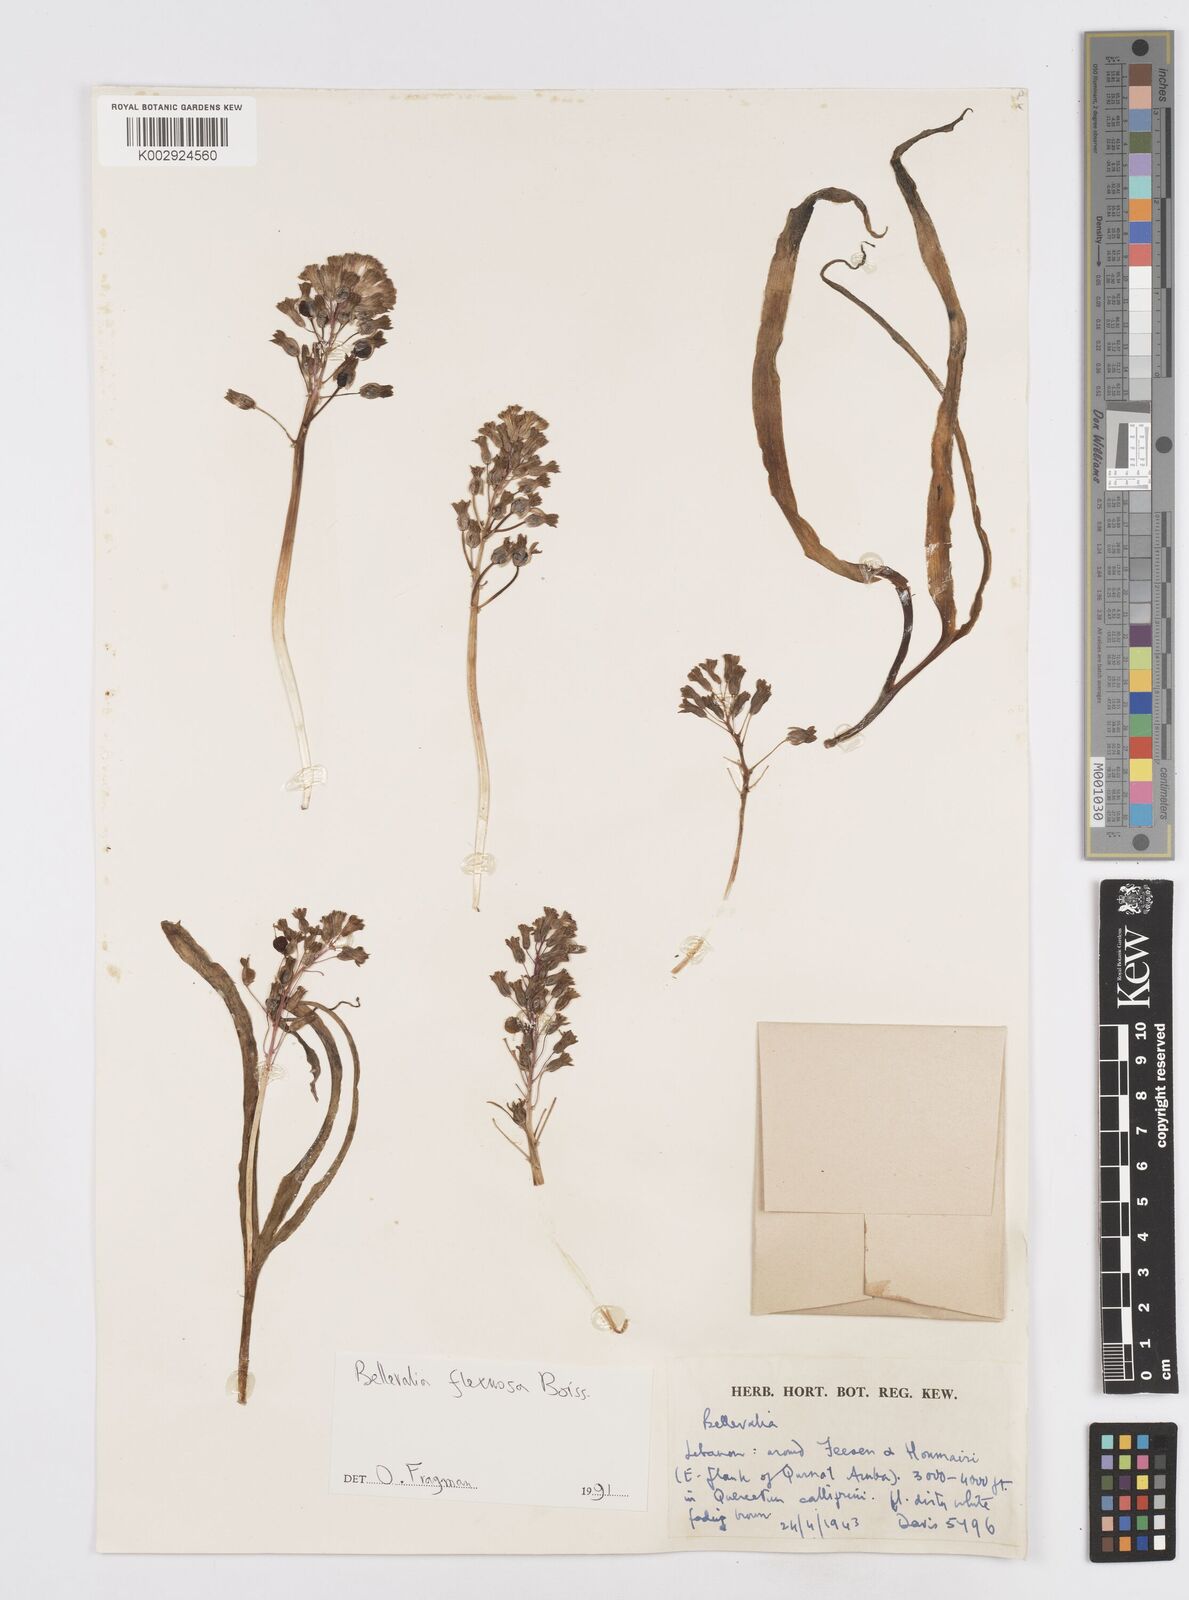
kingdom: Plantae
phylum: Tracheophyta
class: Liliopsida
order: Asparagales
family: Asparagaceae
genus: Bellevalia
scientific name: Bellevalia flexuosa
